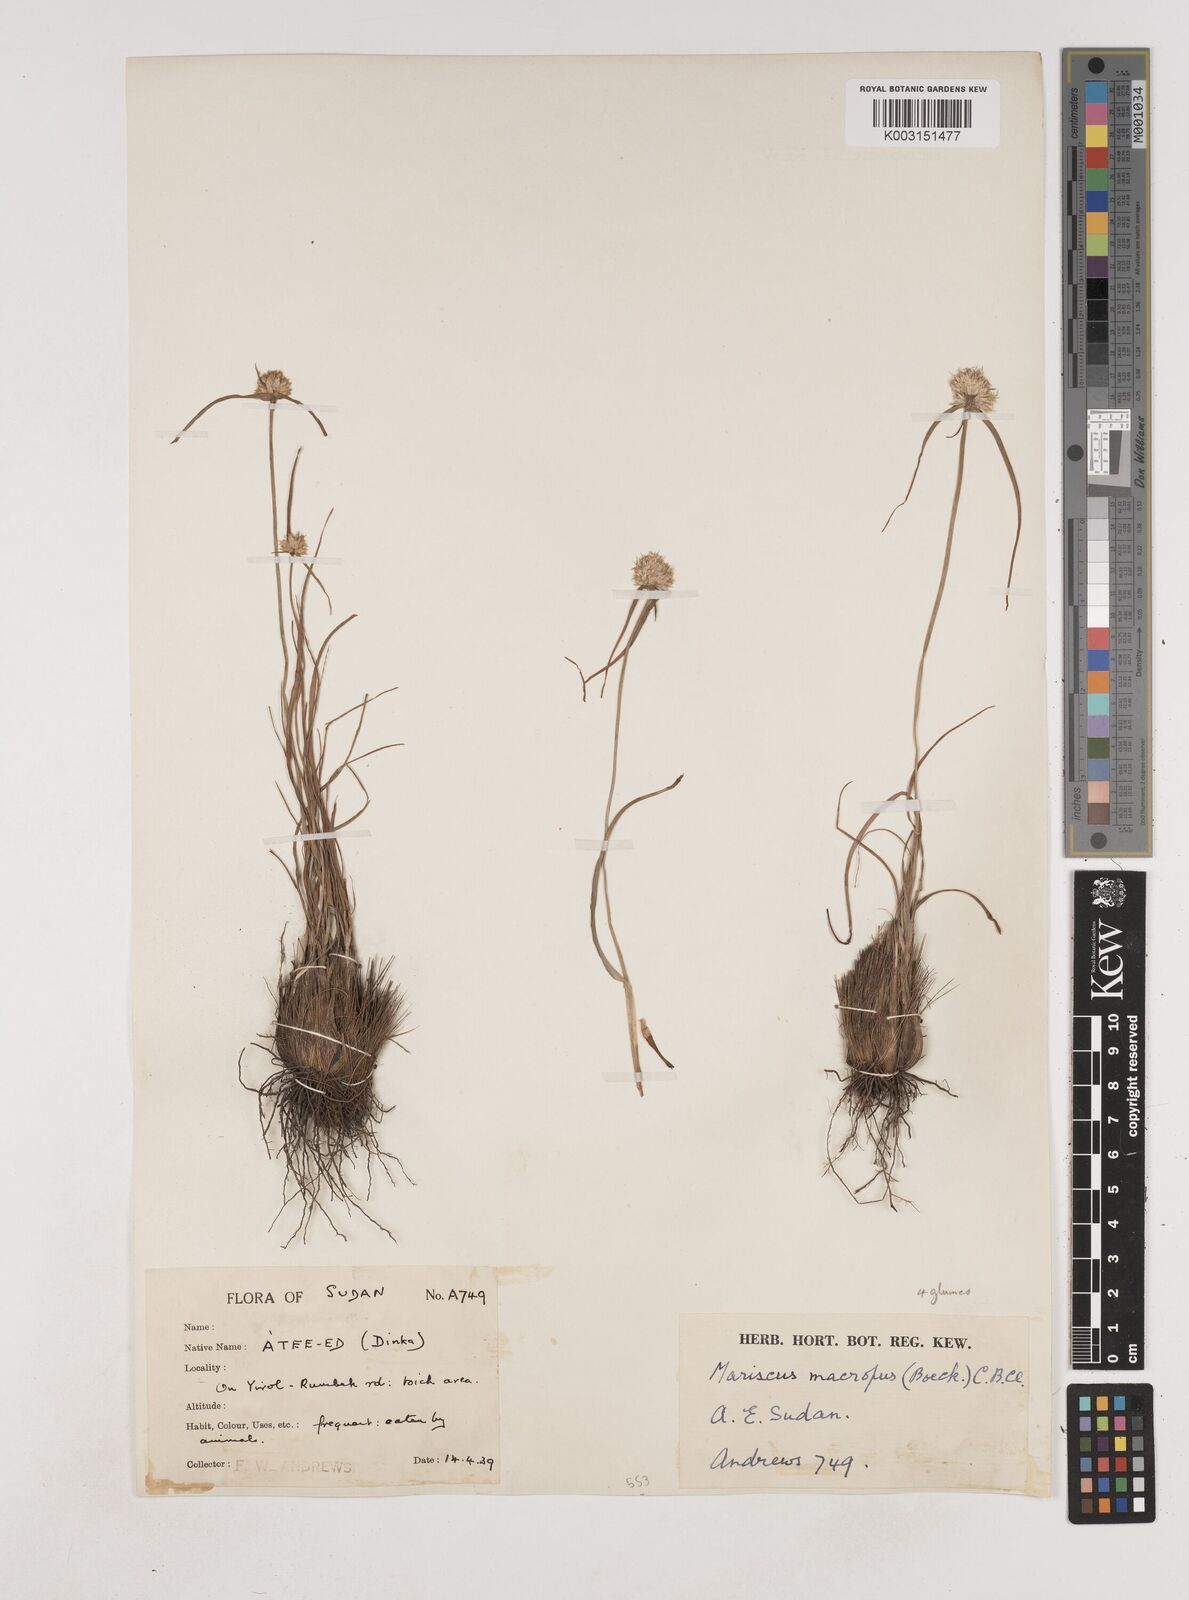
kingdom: Plantae
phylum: Tracheophyta
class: Liliopsida
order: Poales
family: Cyperaceae
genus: Cyperus
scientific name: Cyperus mollipes
